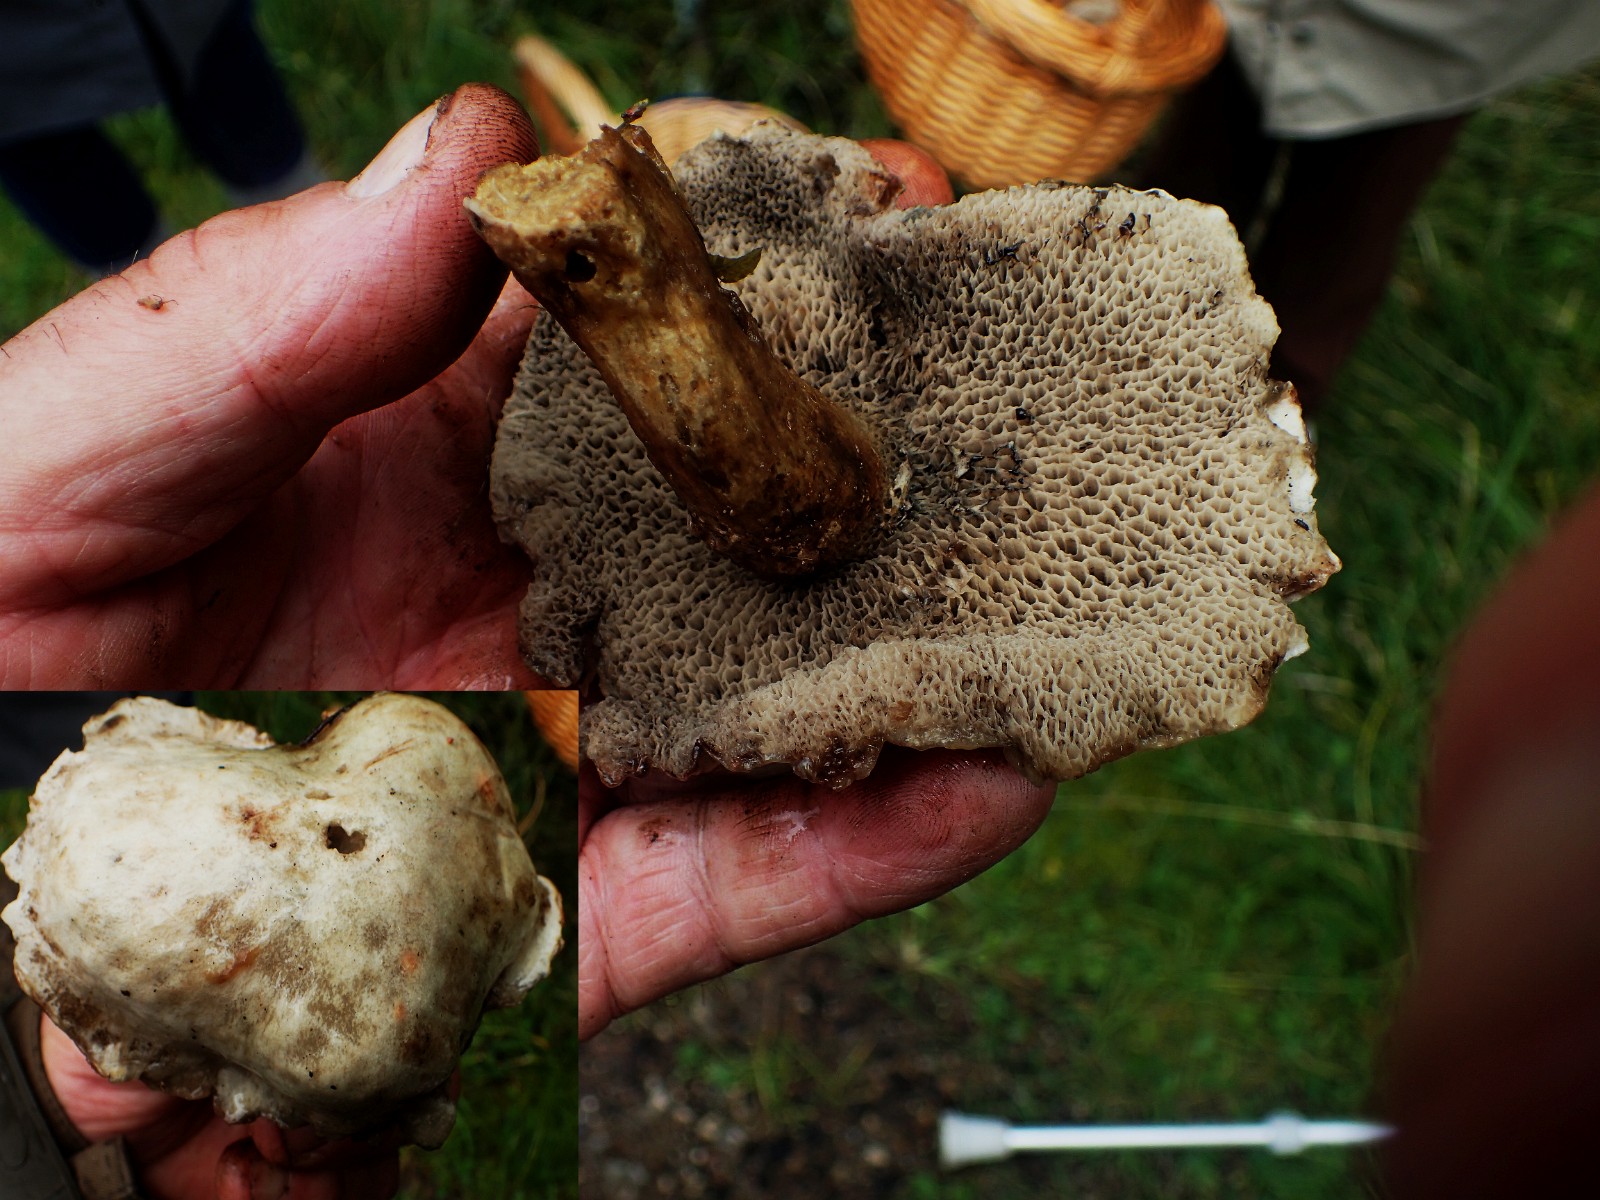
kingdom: Fungi
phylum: Basidiomycota
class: Agaricomycetes
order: Boletales
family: Suillaceae
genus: Suillus
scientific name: Suillus viscidus
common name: olivengrå slimrørhat
